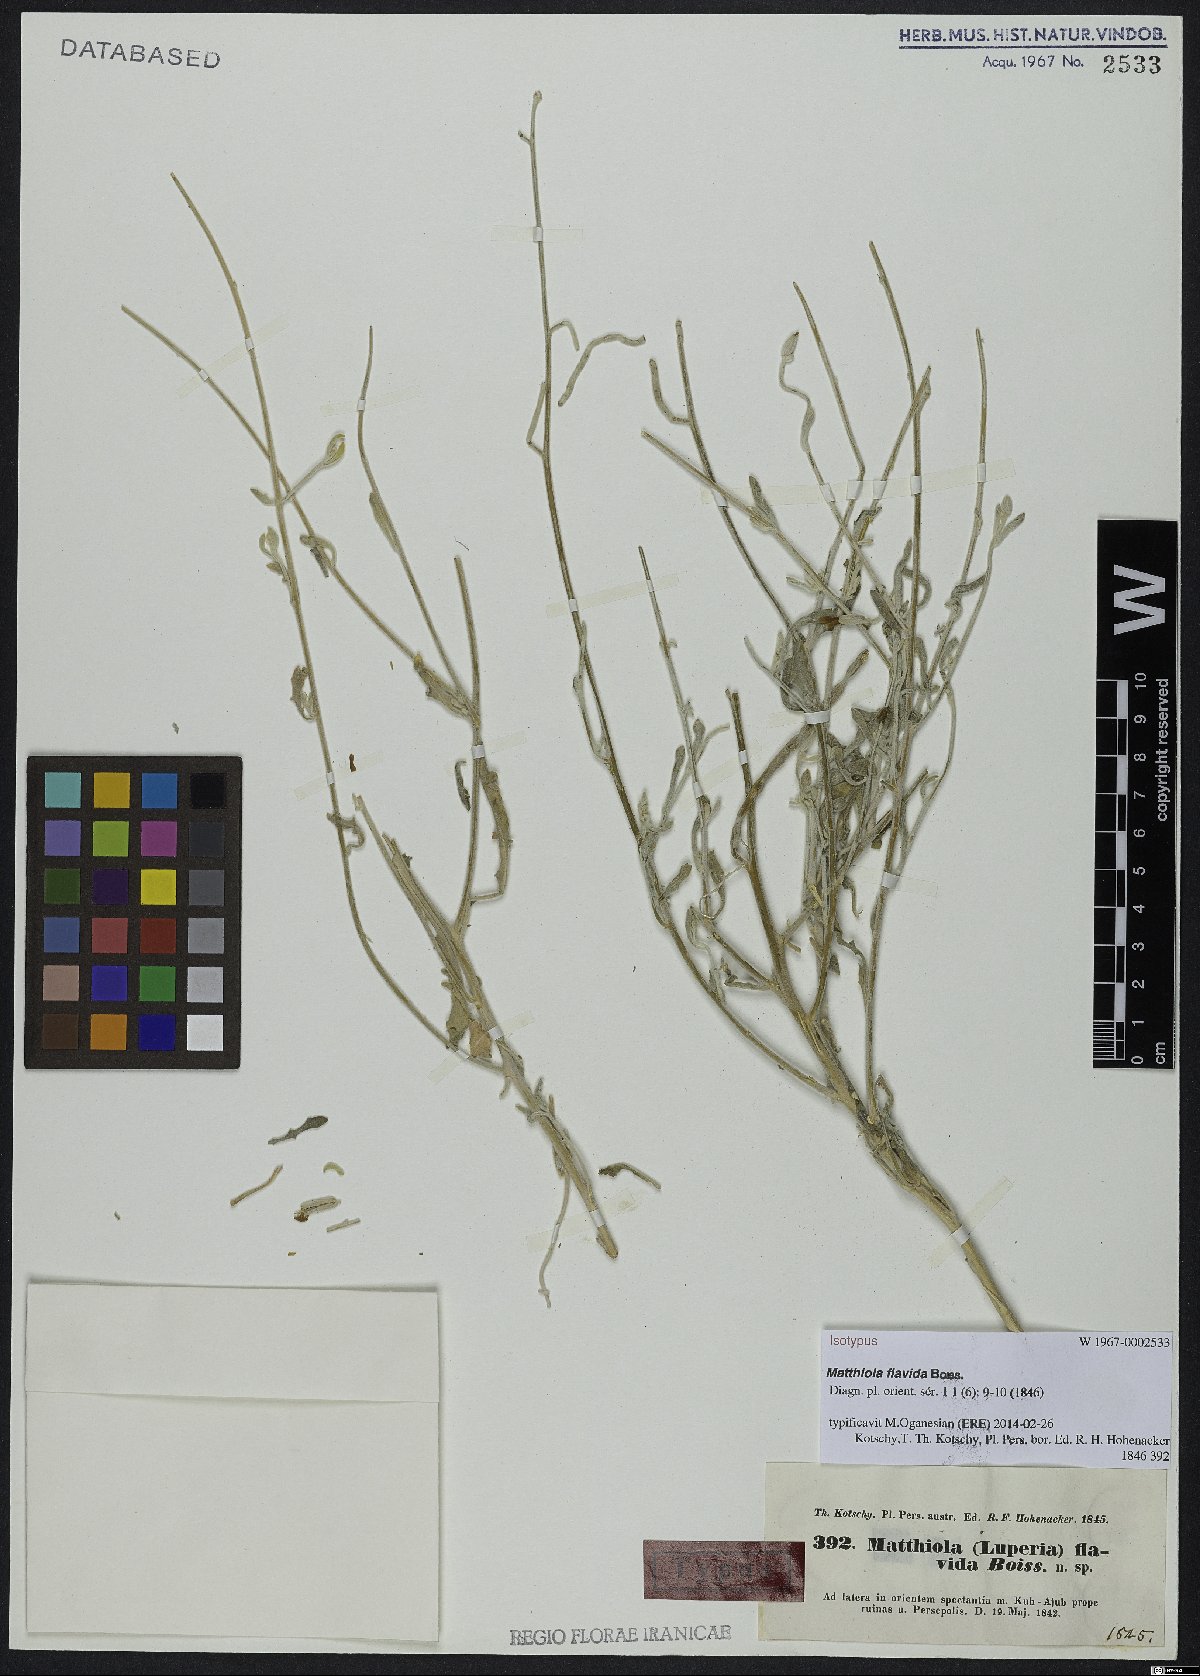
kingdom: Plantae
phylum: Tracheophyta
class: Magnoliopsida
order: Brassicales
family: Brassicaceae
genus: Matthiola
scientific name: Matthiola flavida
